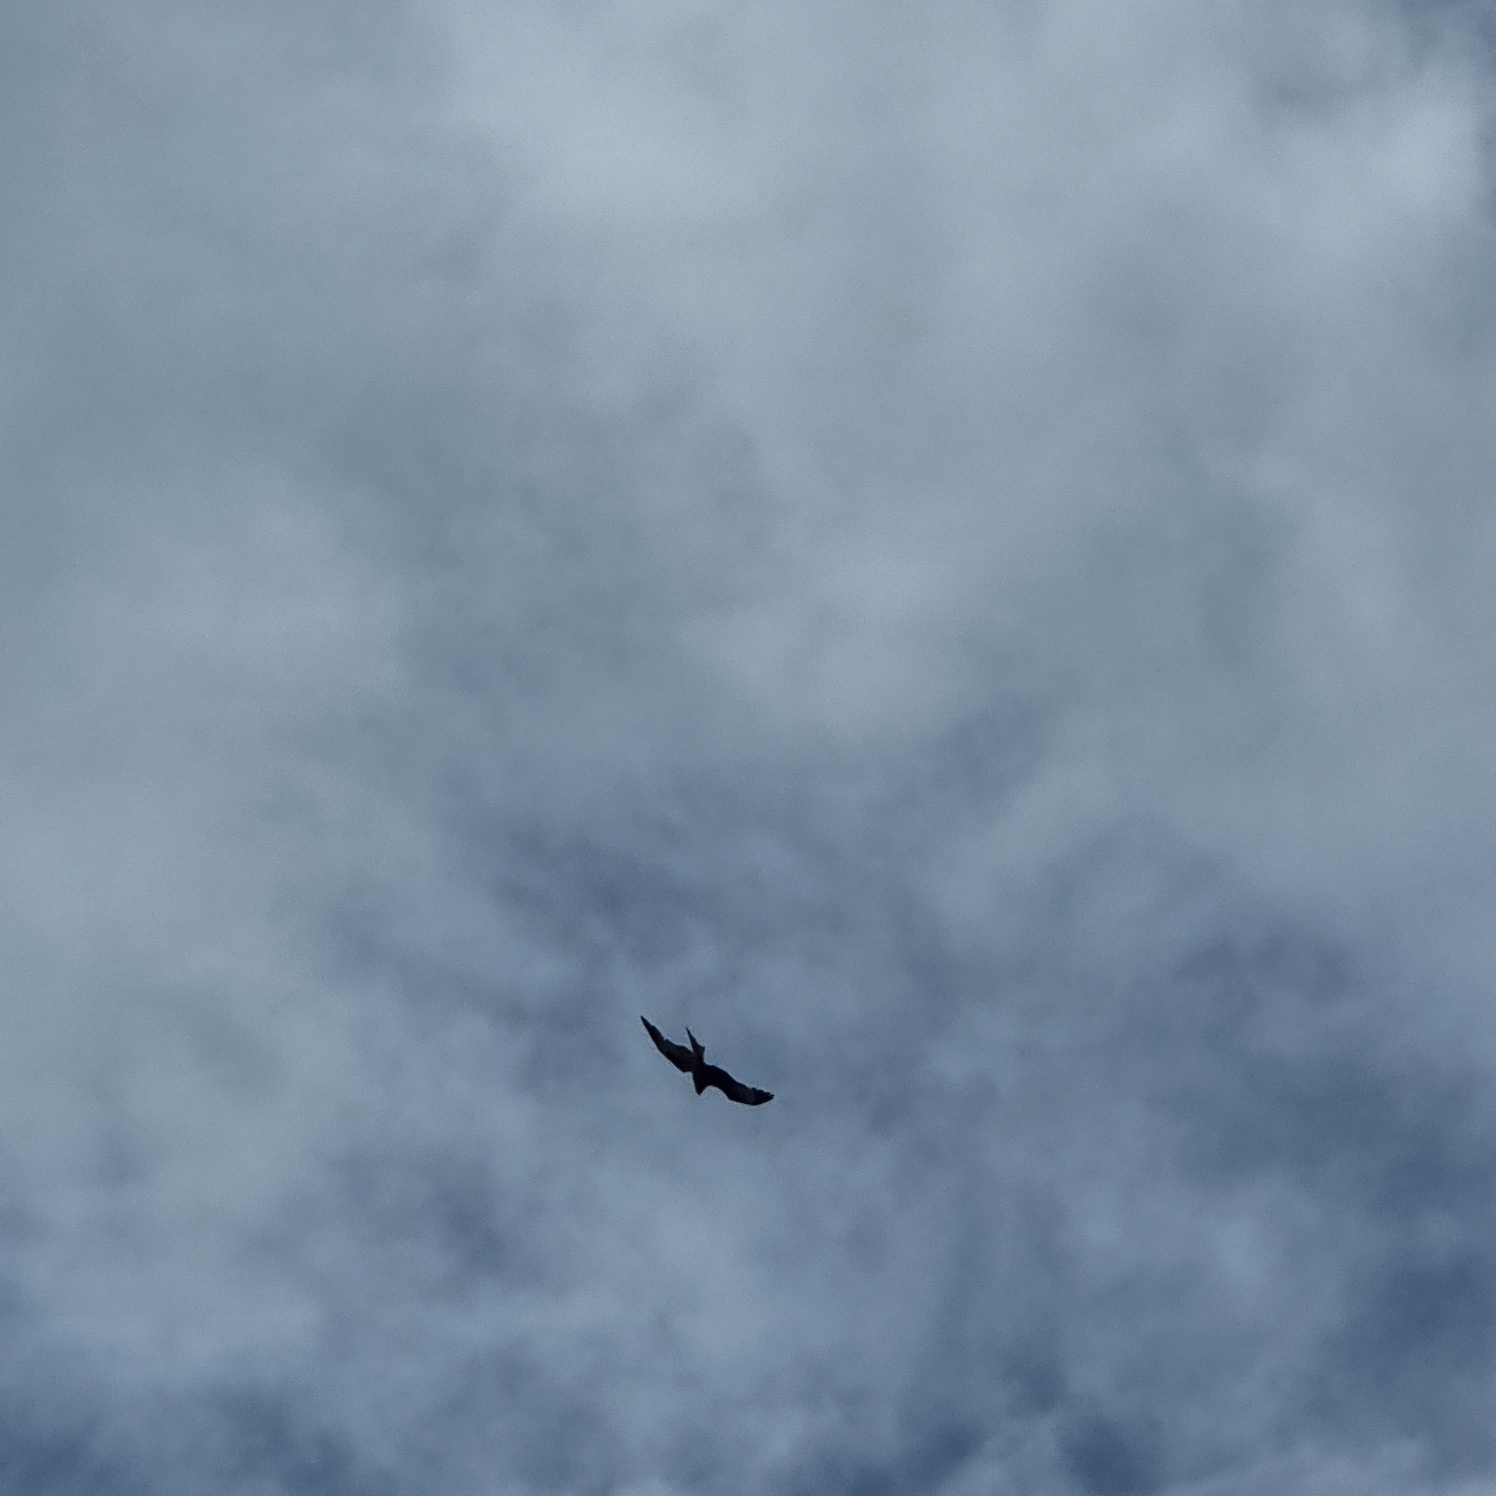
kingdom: Animalia
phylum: Chordata
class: Aves
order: Accipitriformes
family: Accipitridae
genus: Milvus
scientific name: Milvus milvus
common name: Rød glente
